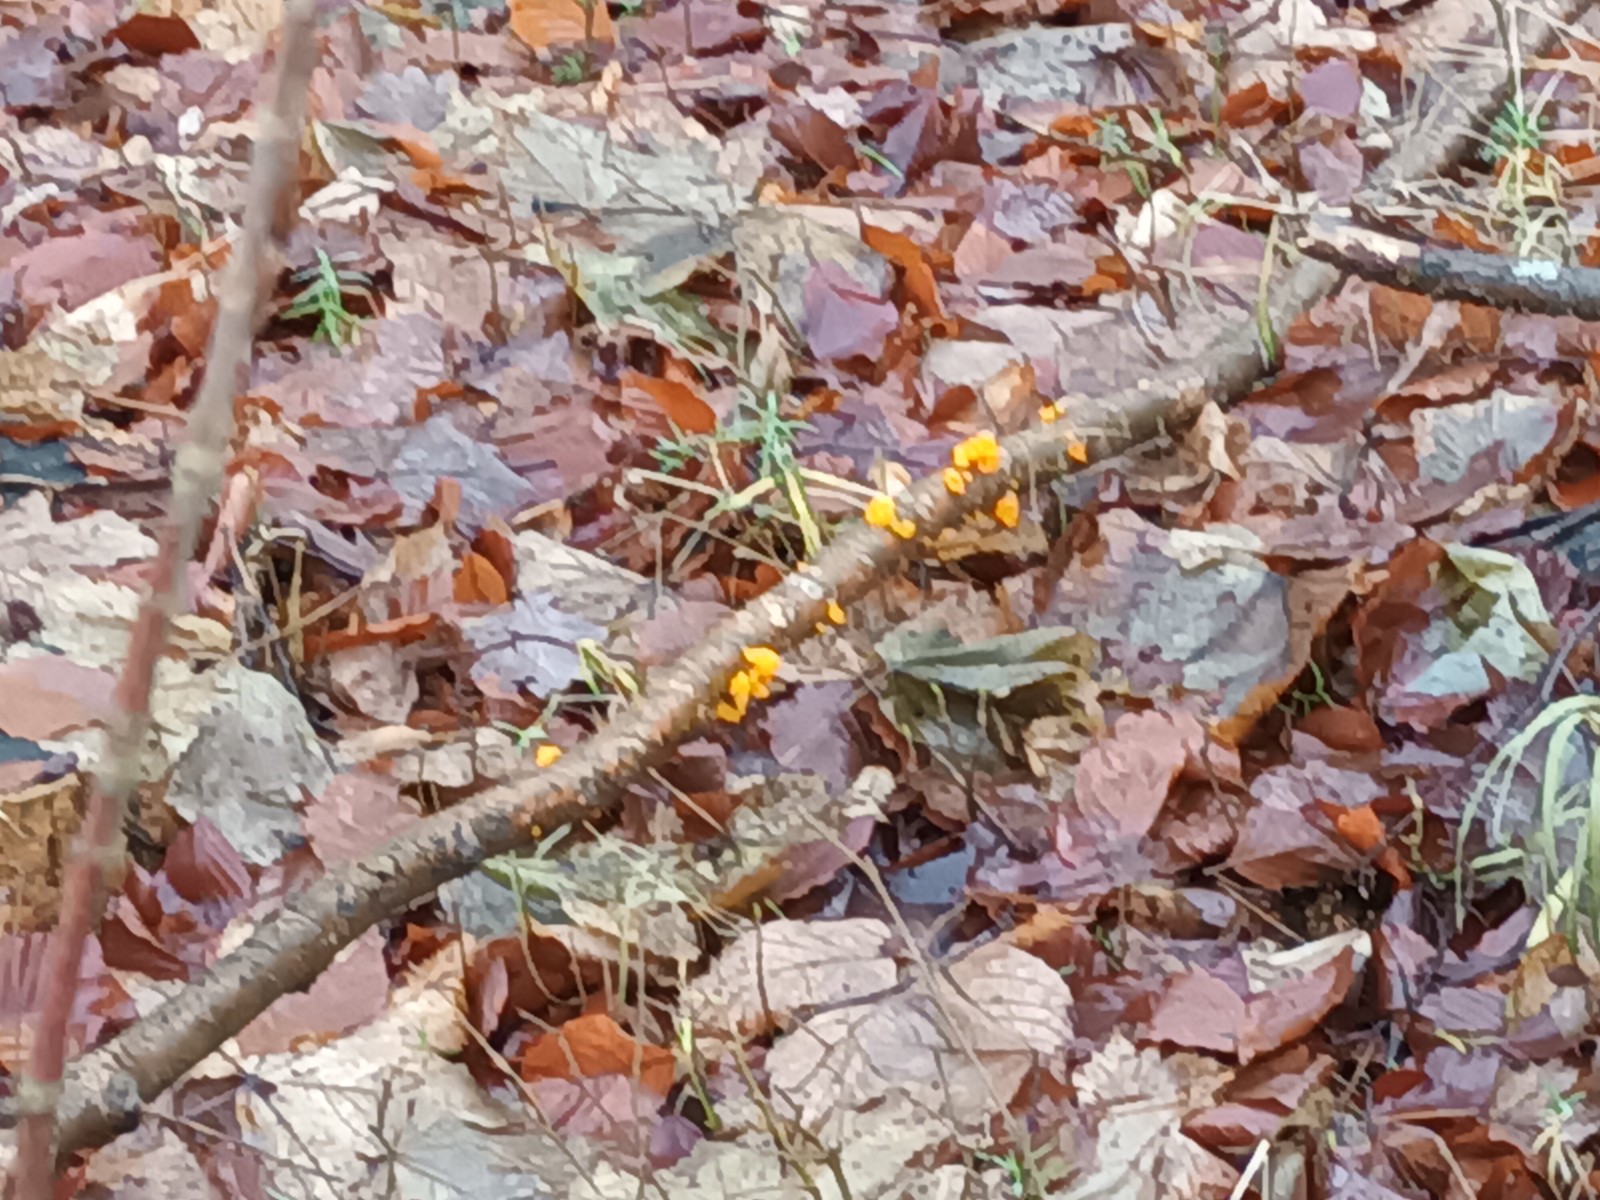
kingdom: Fungi
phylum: Basidiomycota
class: Tremellomycetes
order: Tremellales
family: Tremellaceae
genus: Tremella
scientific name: Tremella mesenterica
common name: gul bævresvamp
